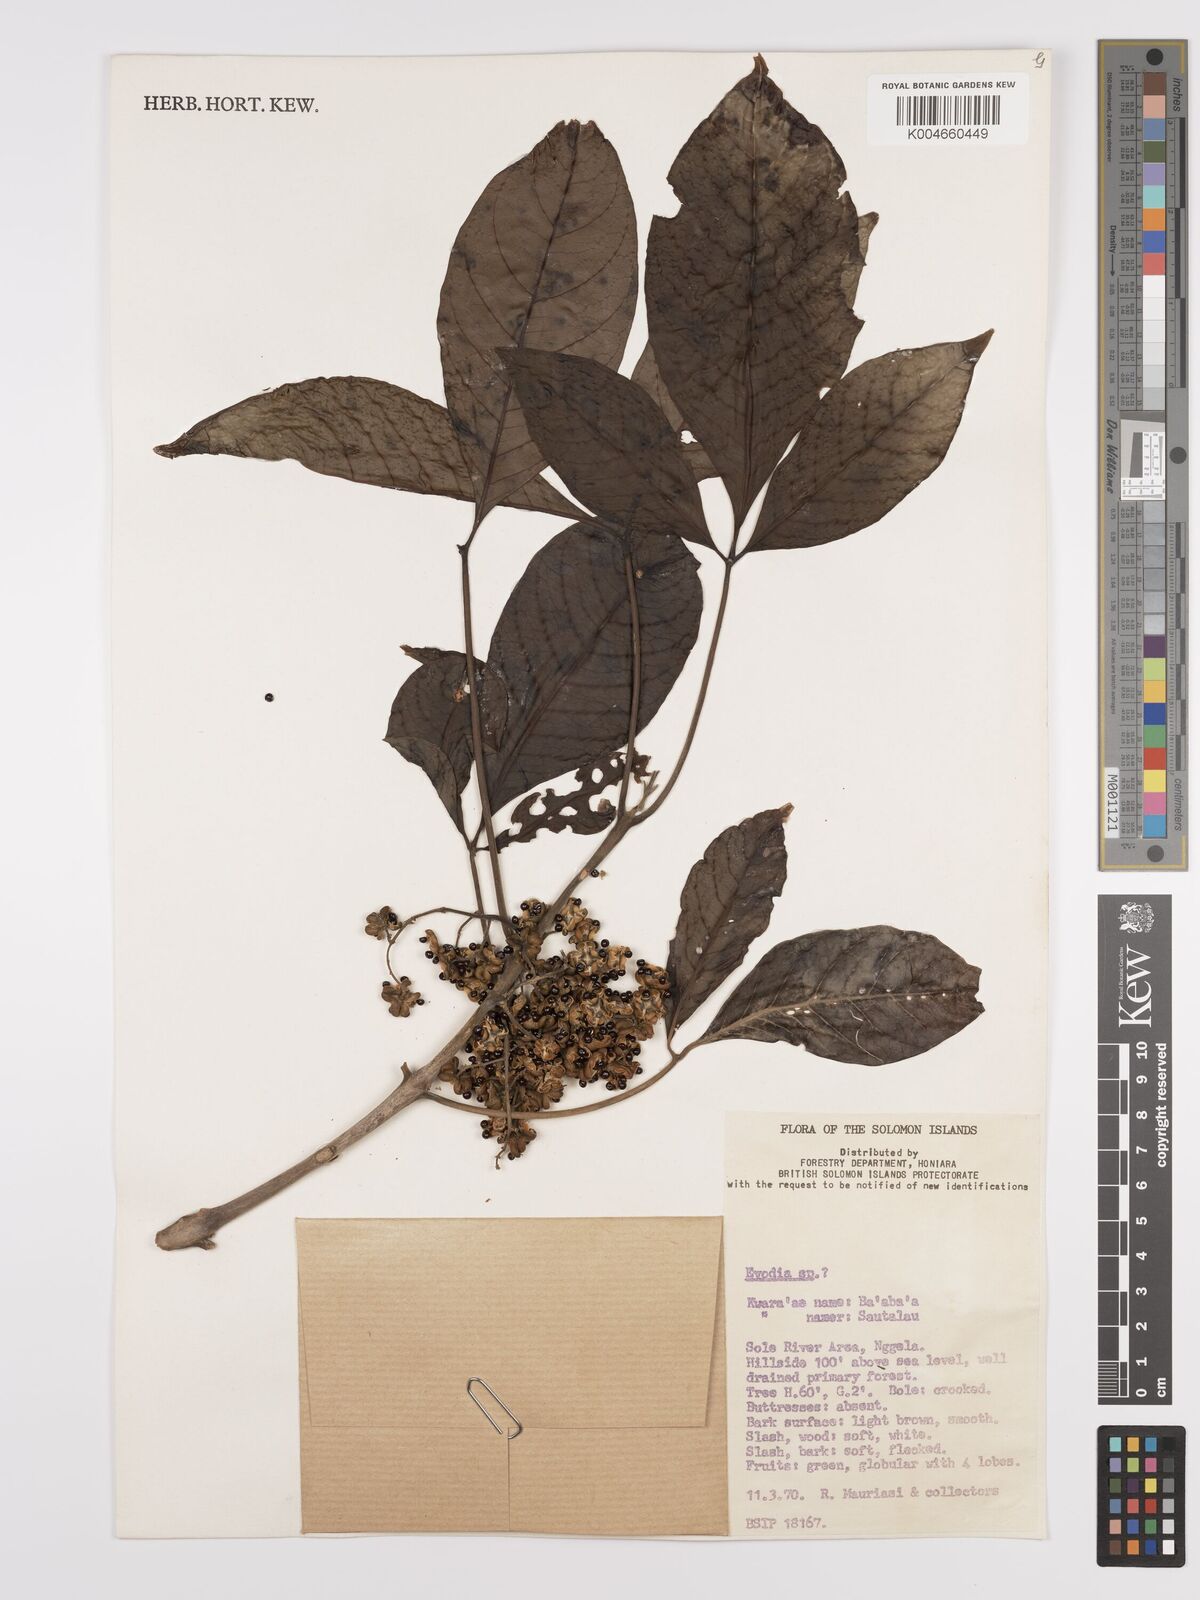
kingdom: Plantae
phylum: Tracheophyta
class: Magnoliopsida
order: Sapindales
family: Rutaceae
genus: Euodia
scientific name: Euodia
